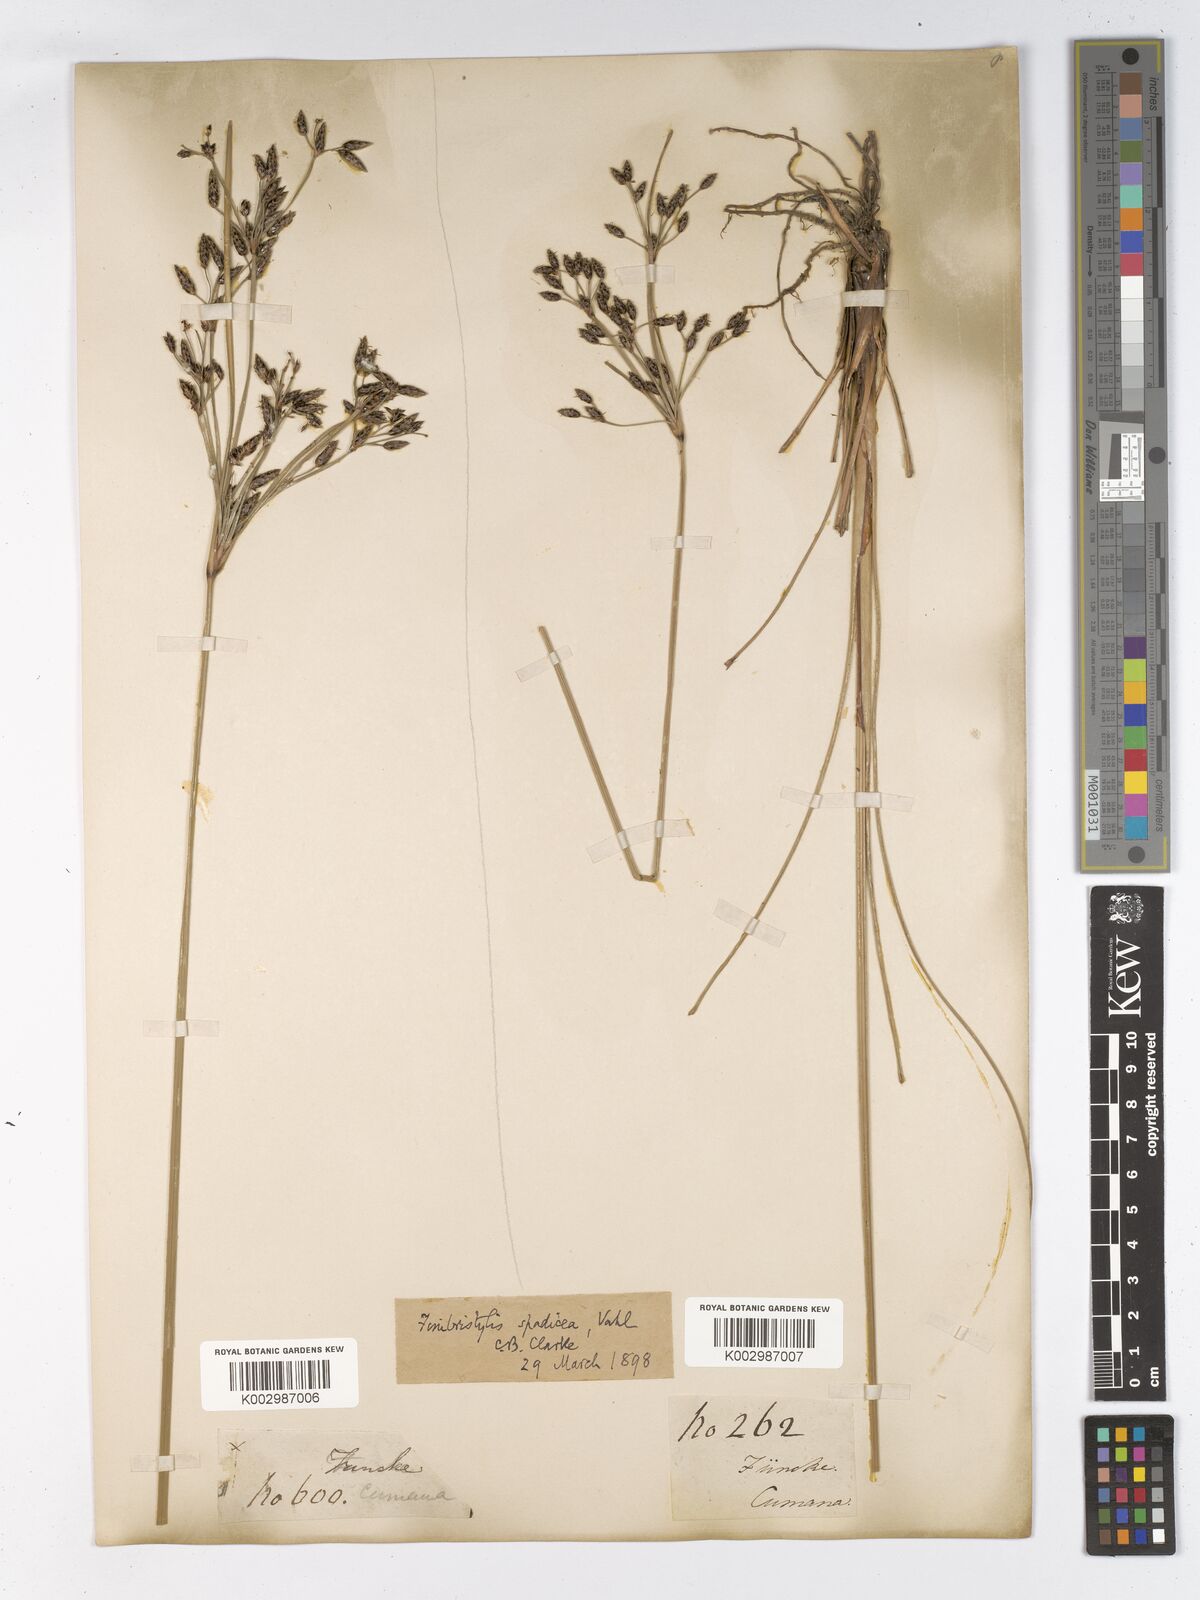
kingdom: Plantae
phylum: Tracheophyta
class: Liliopsida
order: Poales
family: Cyperaceae
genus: Fimbristylis
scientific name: Fimbristylis spadicea
